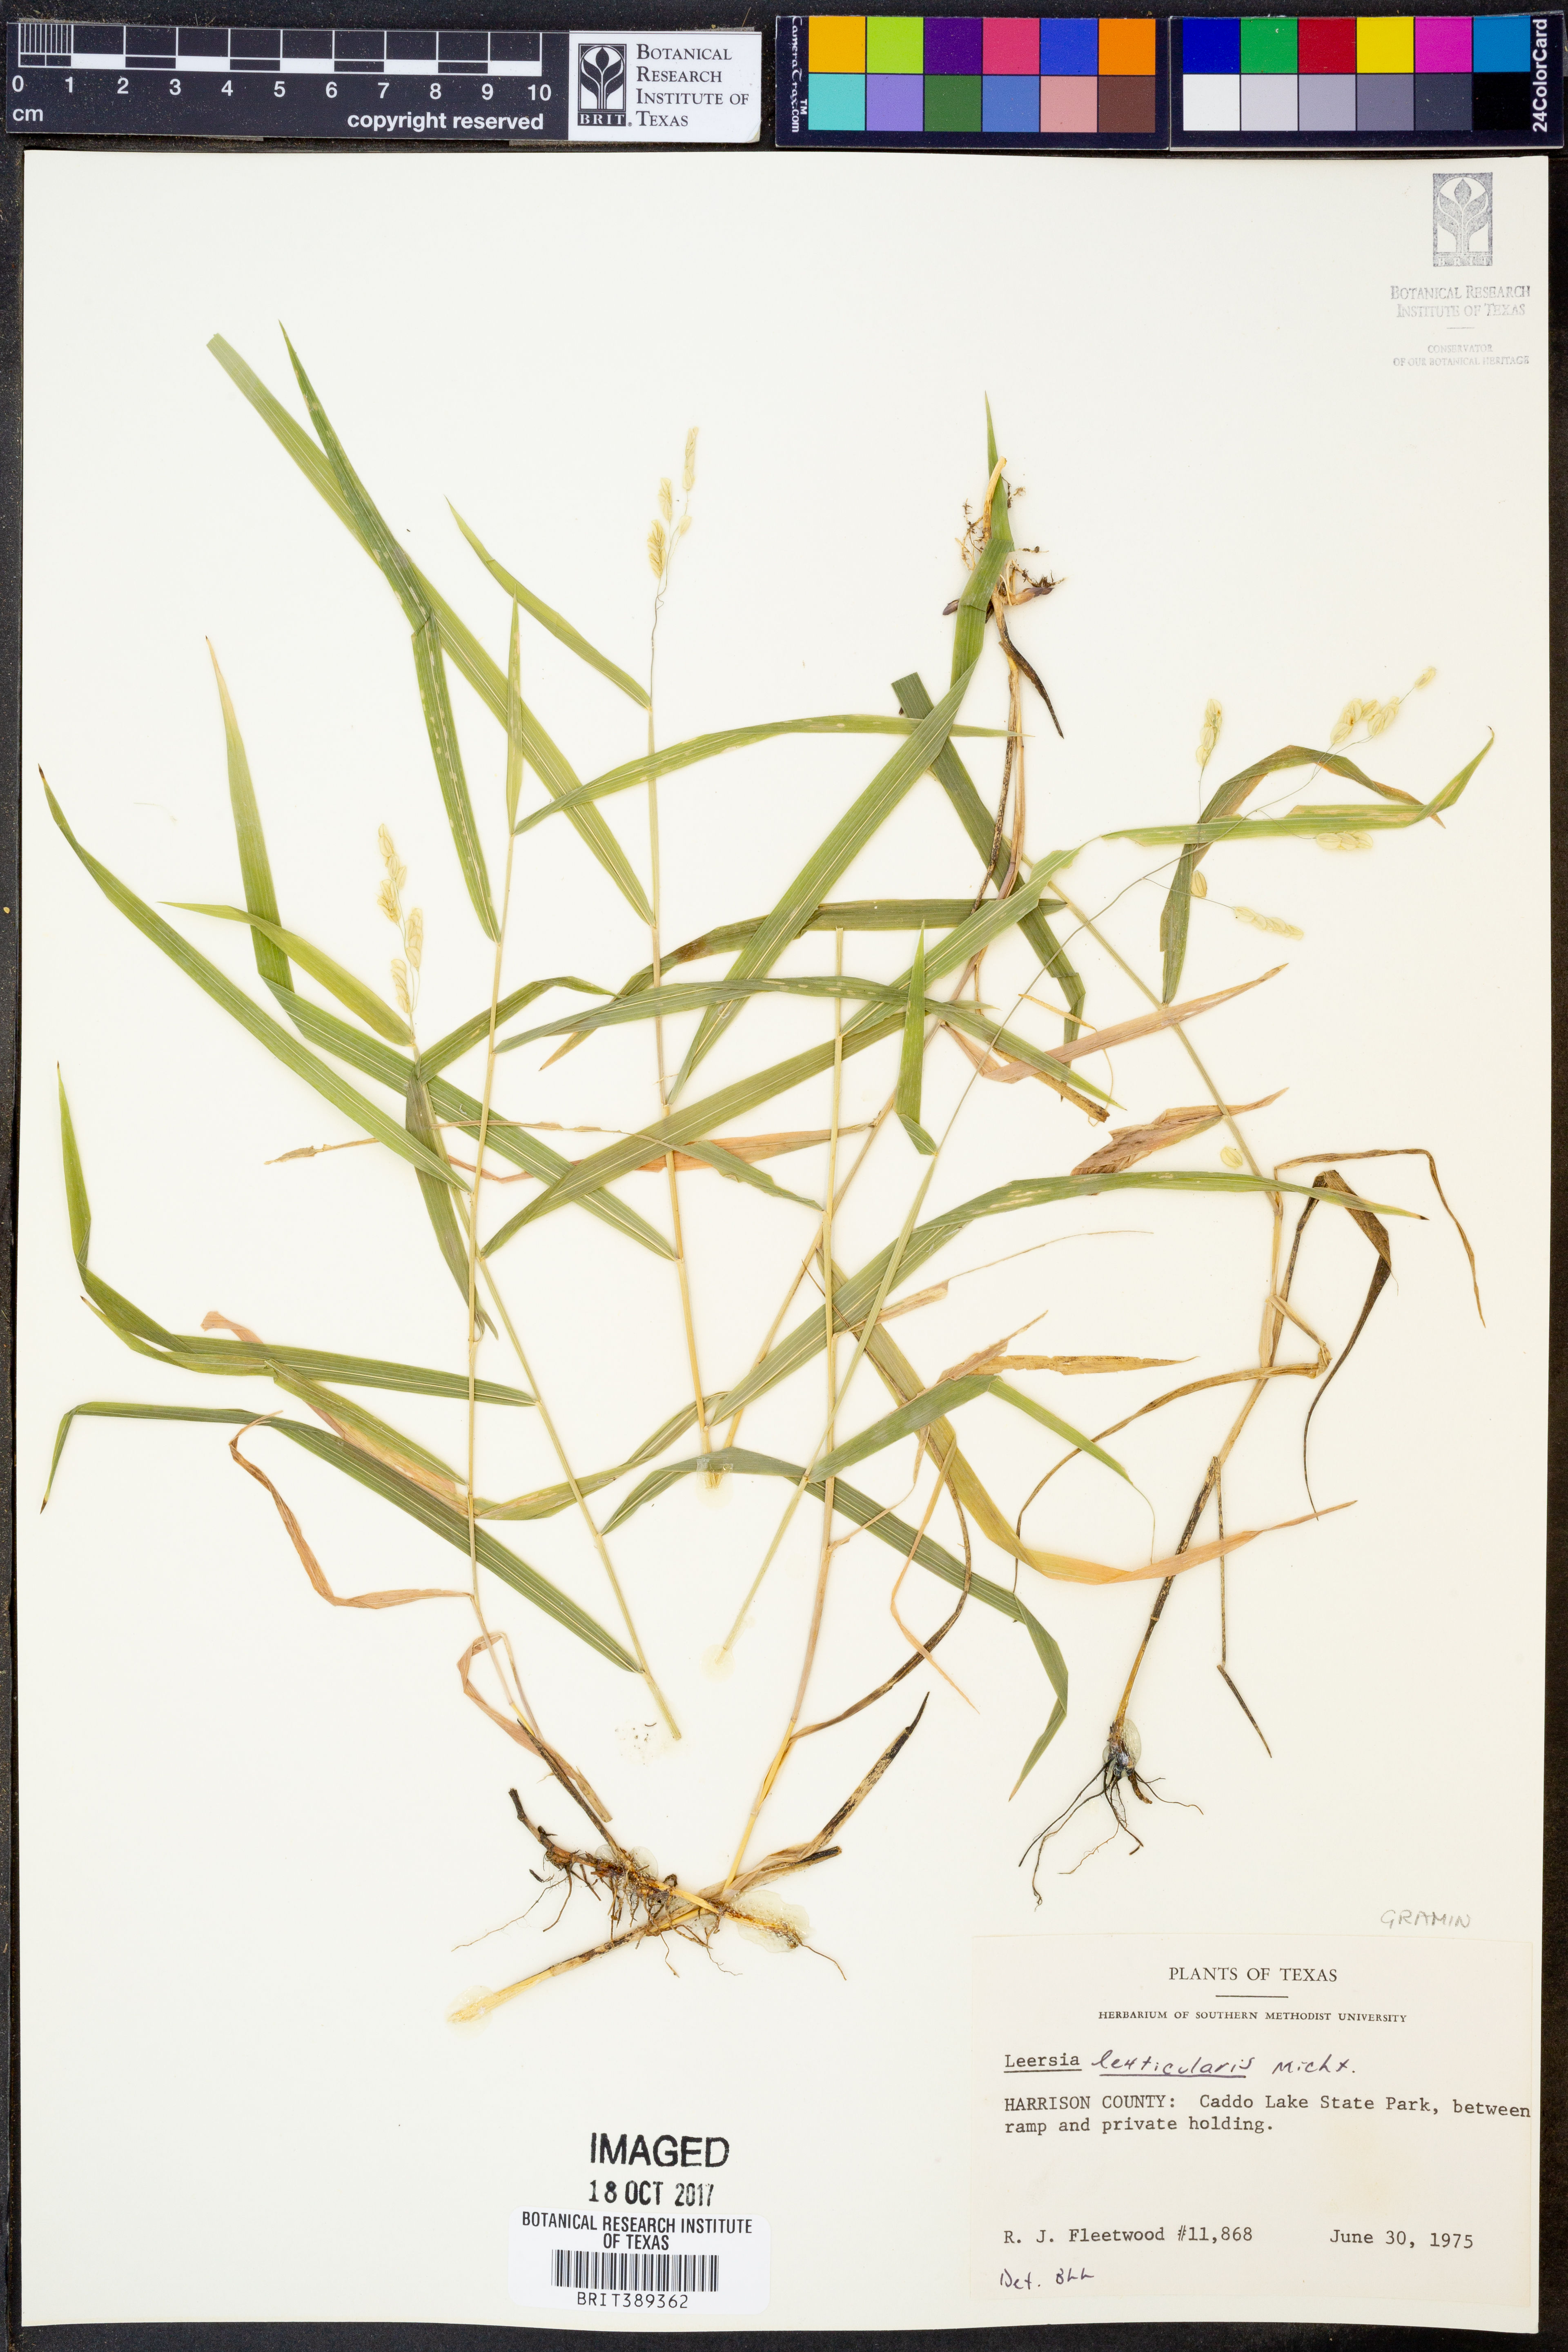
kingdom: Plantae
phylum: Tracheophyta
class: Liliopsida
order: Poales
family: Poaceae
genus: Leersia
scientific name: Leersia lenticularis
